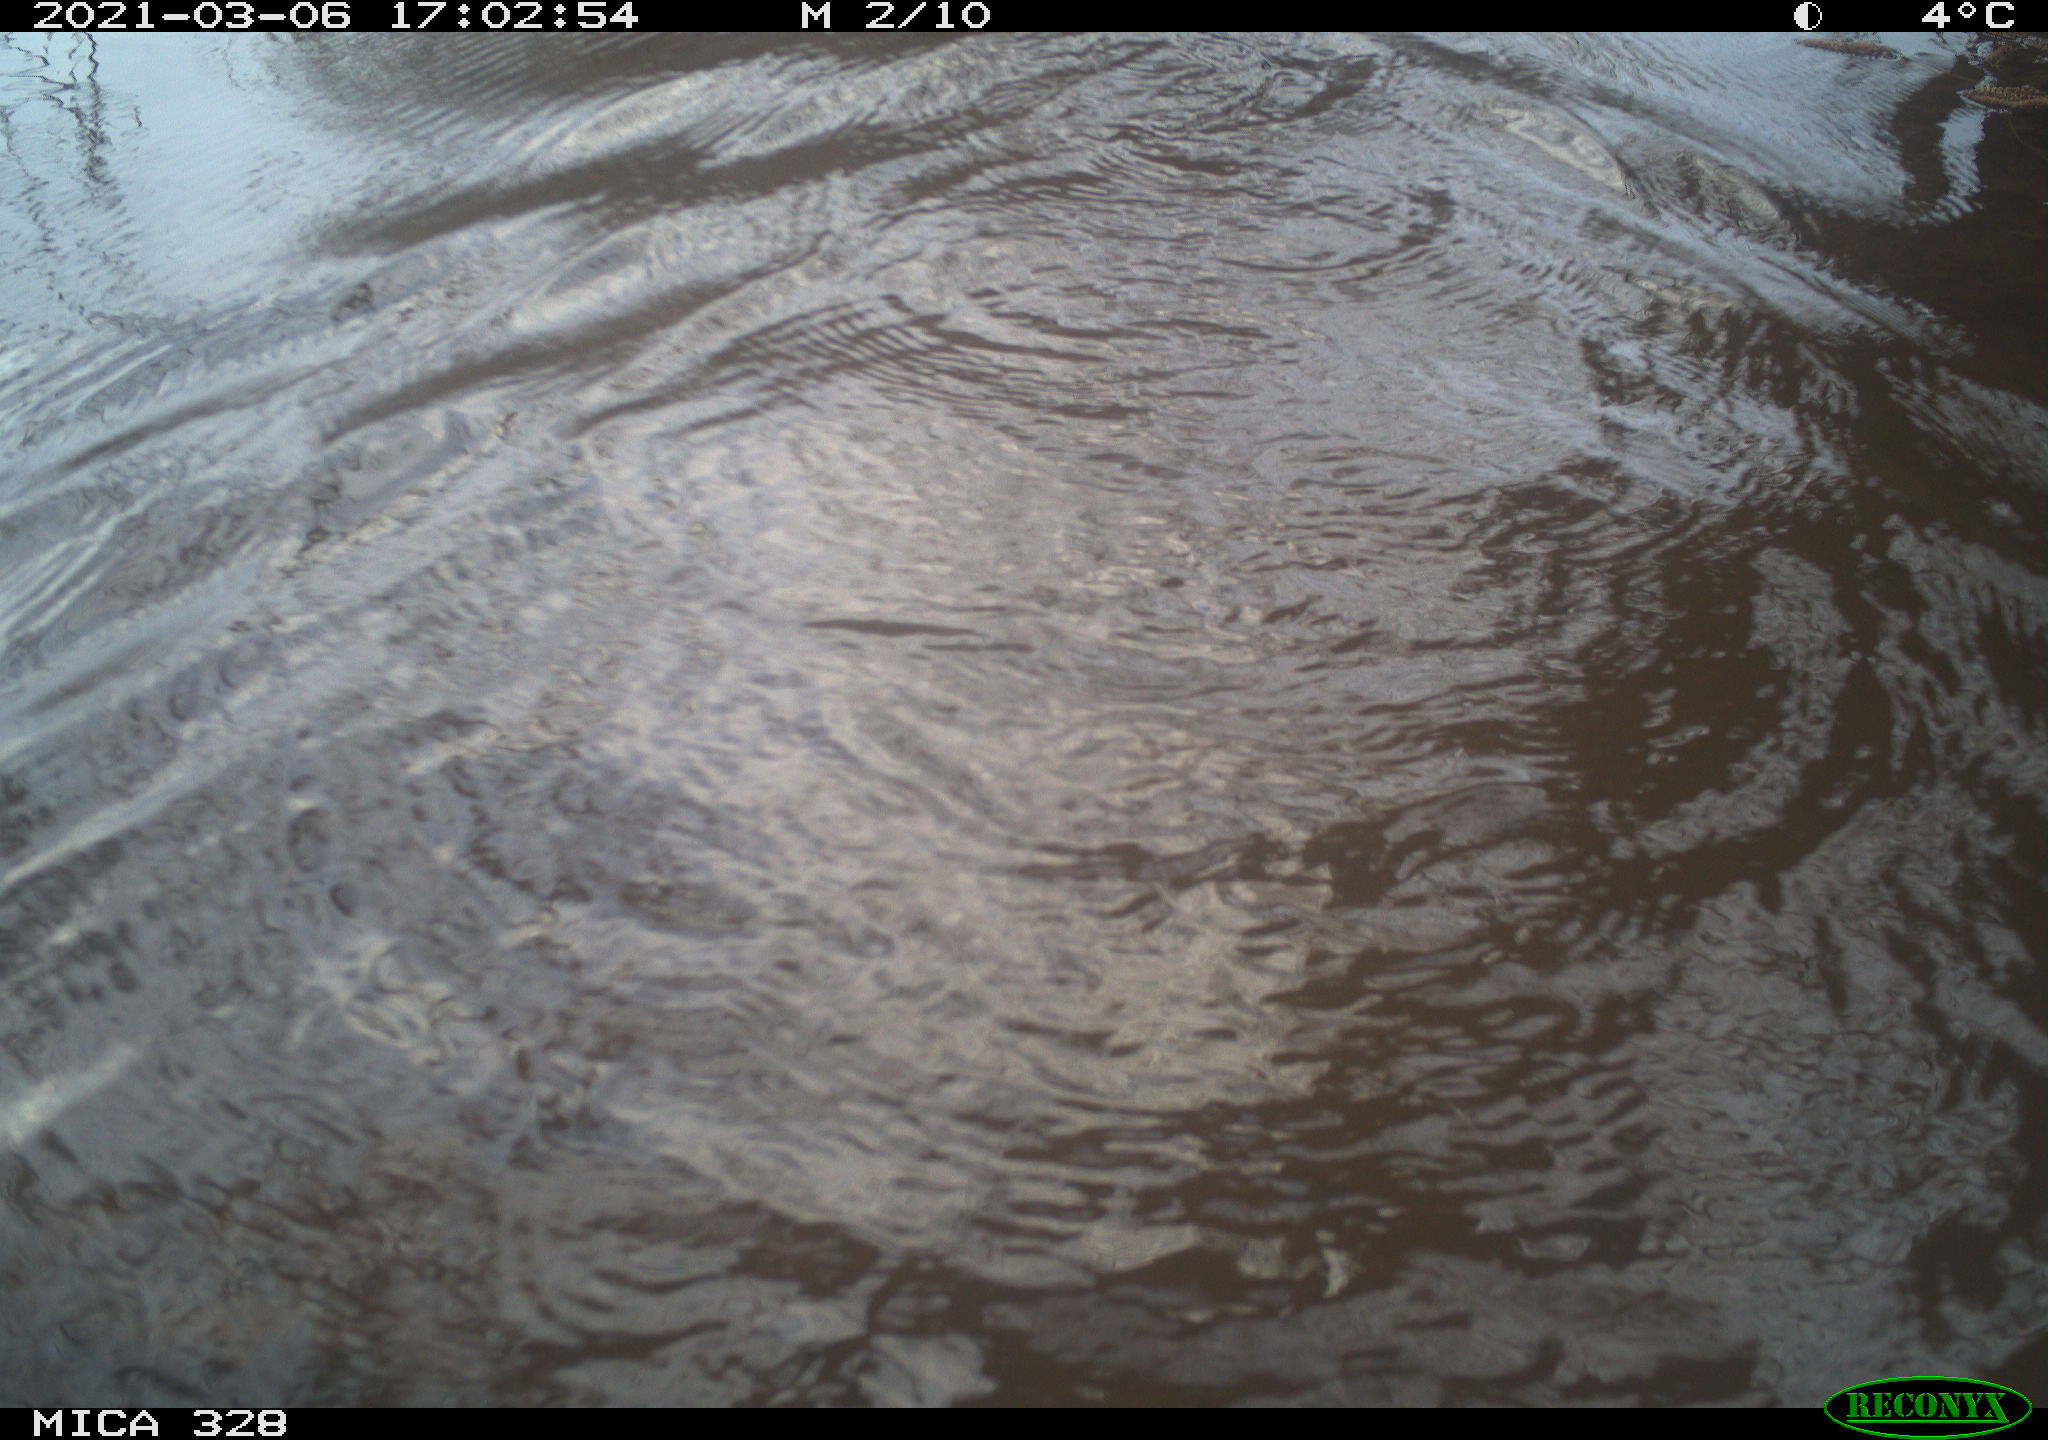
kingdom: Animalia
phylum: Chordata
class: Mammalia
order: Rodentia
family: Cricetidae
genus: Ondatra
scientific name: Ondatra zibethicus
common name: Muskrat
